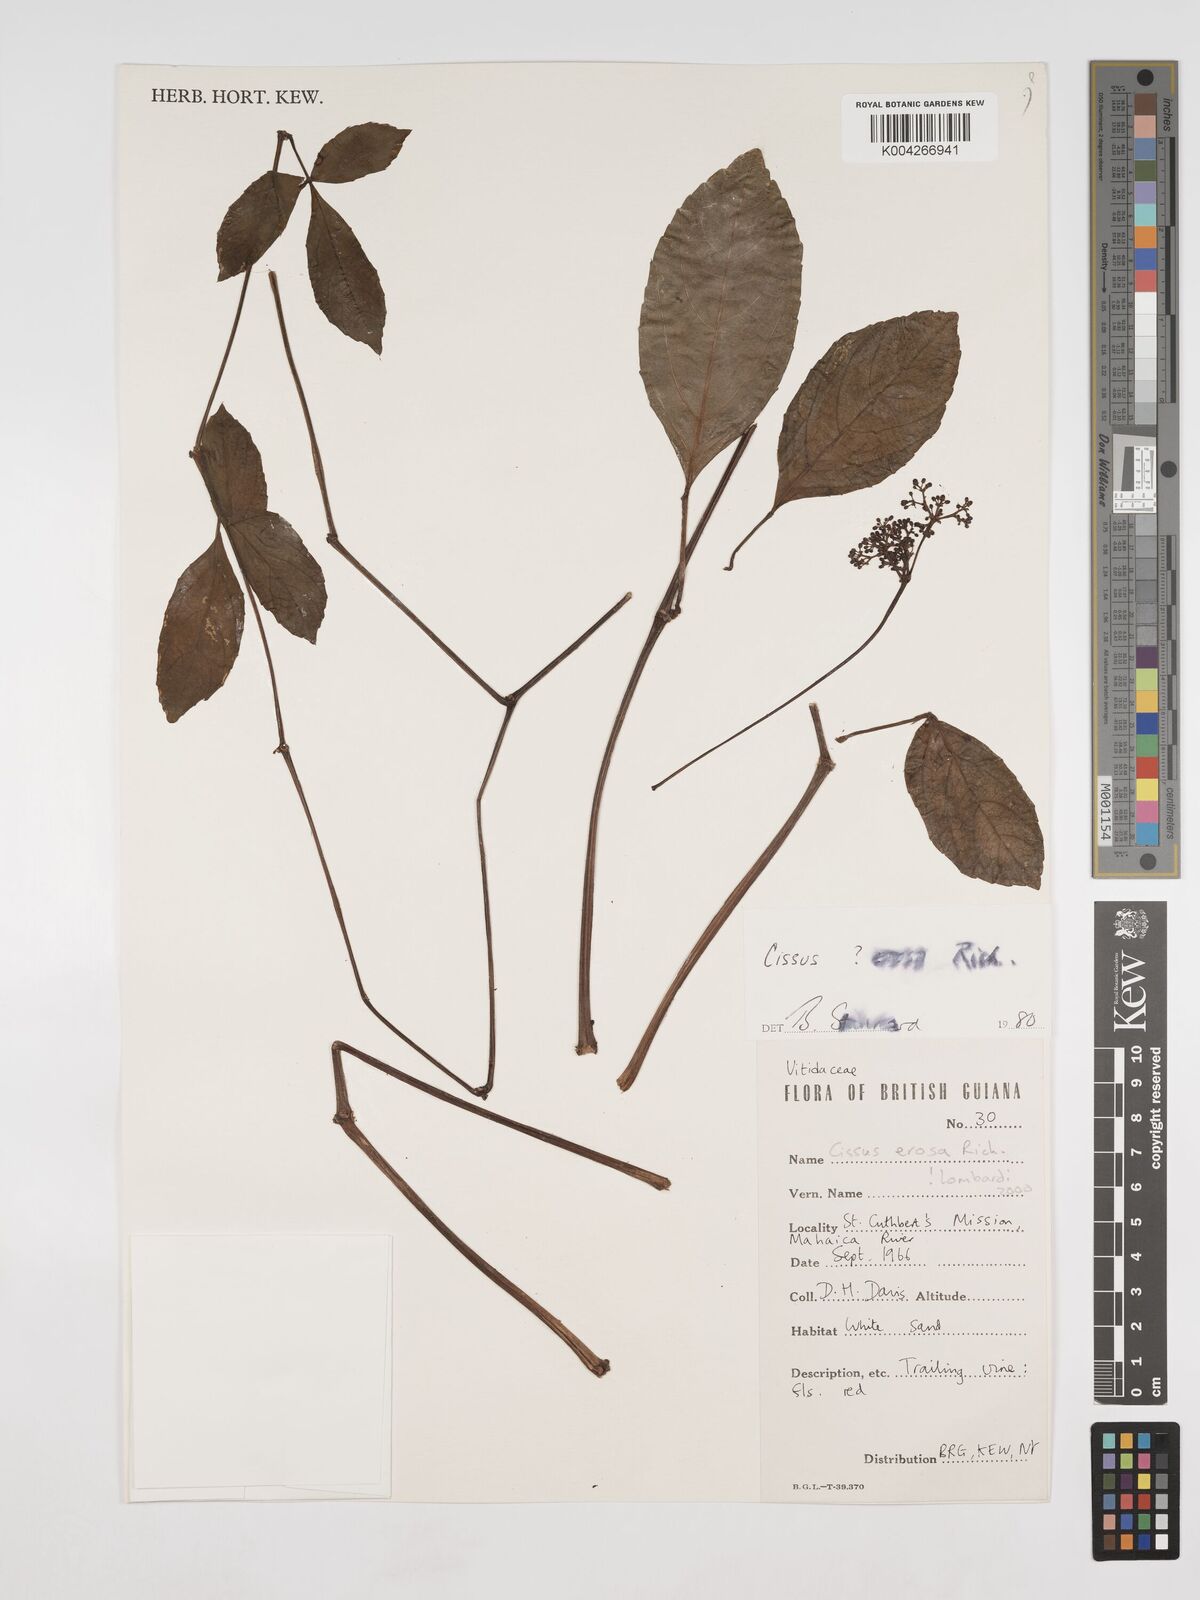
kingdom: Plantae
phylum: Tracheophyta
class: Magnoliopsida
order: Vitales
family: Vitaceae
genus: Cissus
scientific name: Cissus erosa
